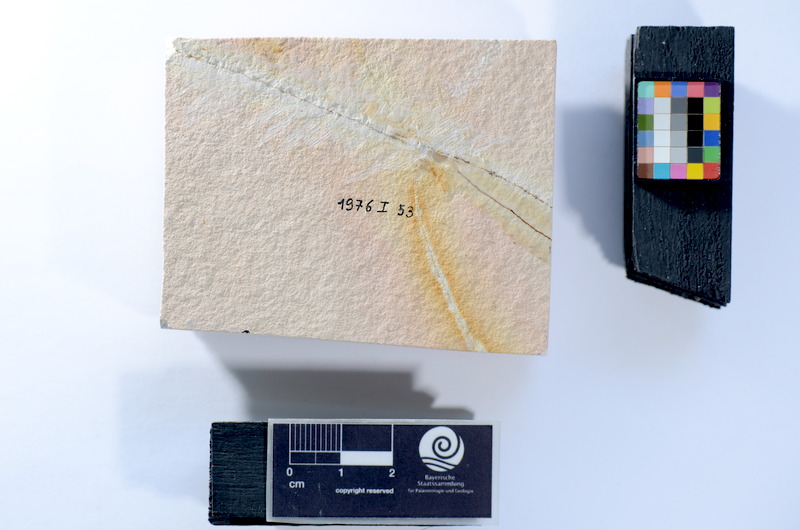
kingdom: Animalia
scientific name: Animalia
